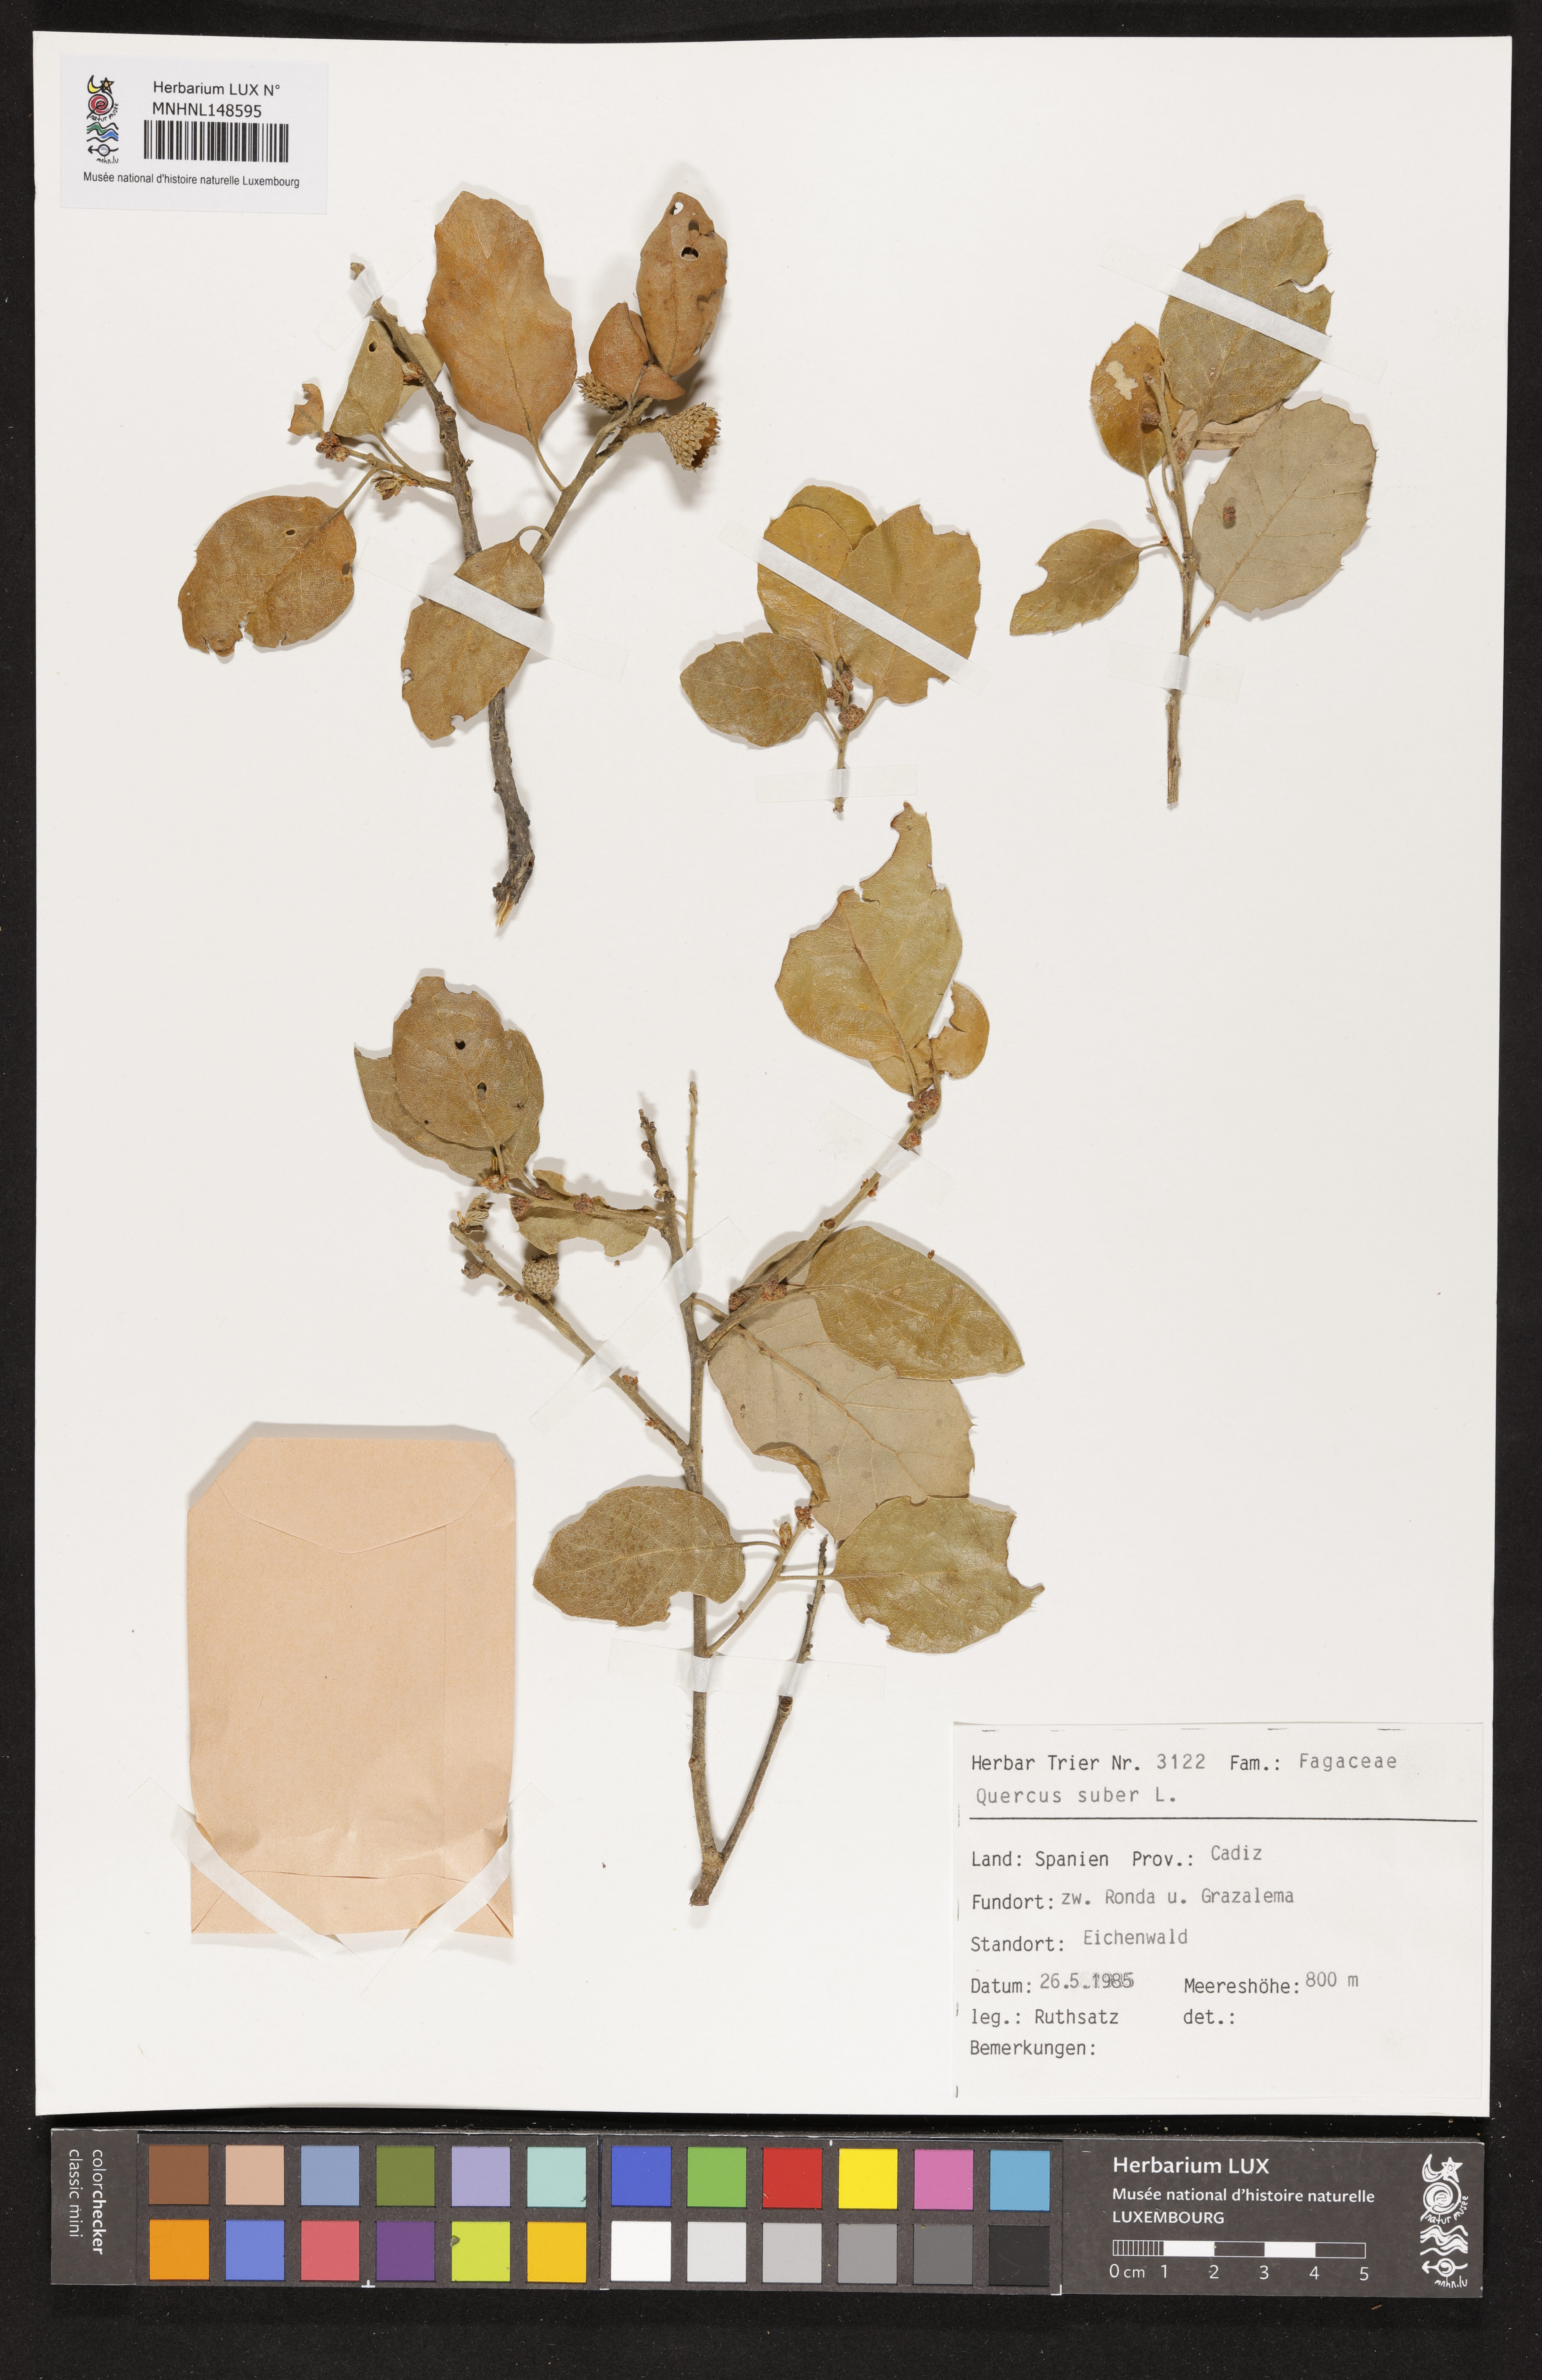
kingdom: Plantae
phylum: Tracheophyta
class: Magnoliopsida
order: Fagales
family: Fagaceae
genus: Quercus
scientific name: Quercus suber
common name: Cork oak
